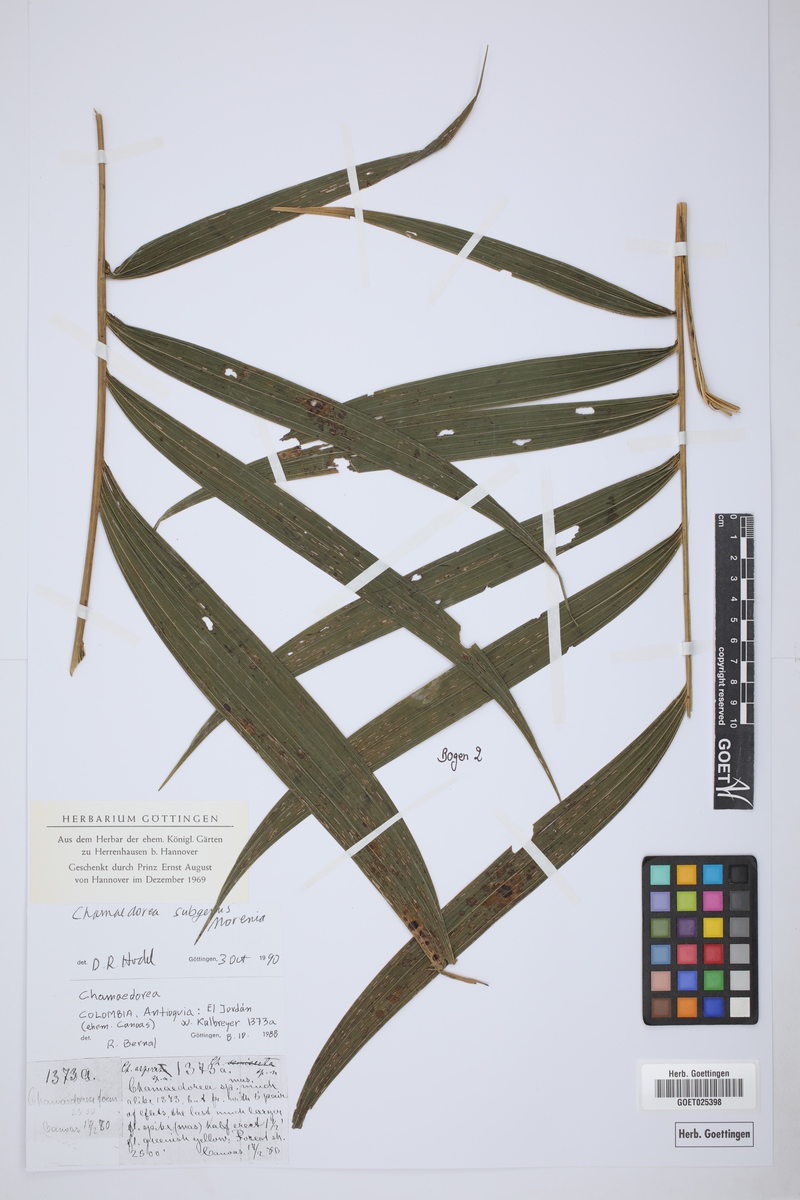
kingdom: Plantae
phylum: Tracheophyta
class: Liliopsida
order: Arecales
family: Arecaceae
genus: Chamaedorea
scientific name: Chamaedorea
